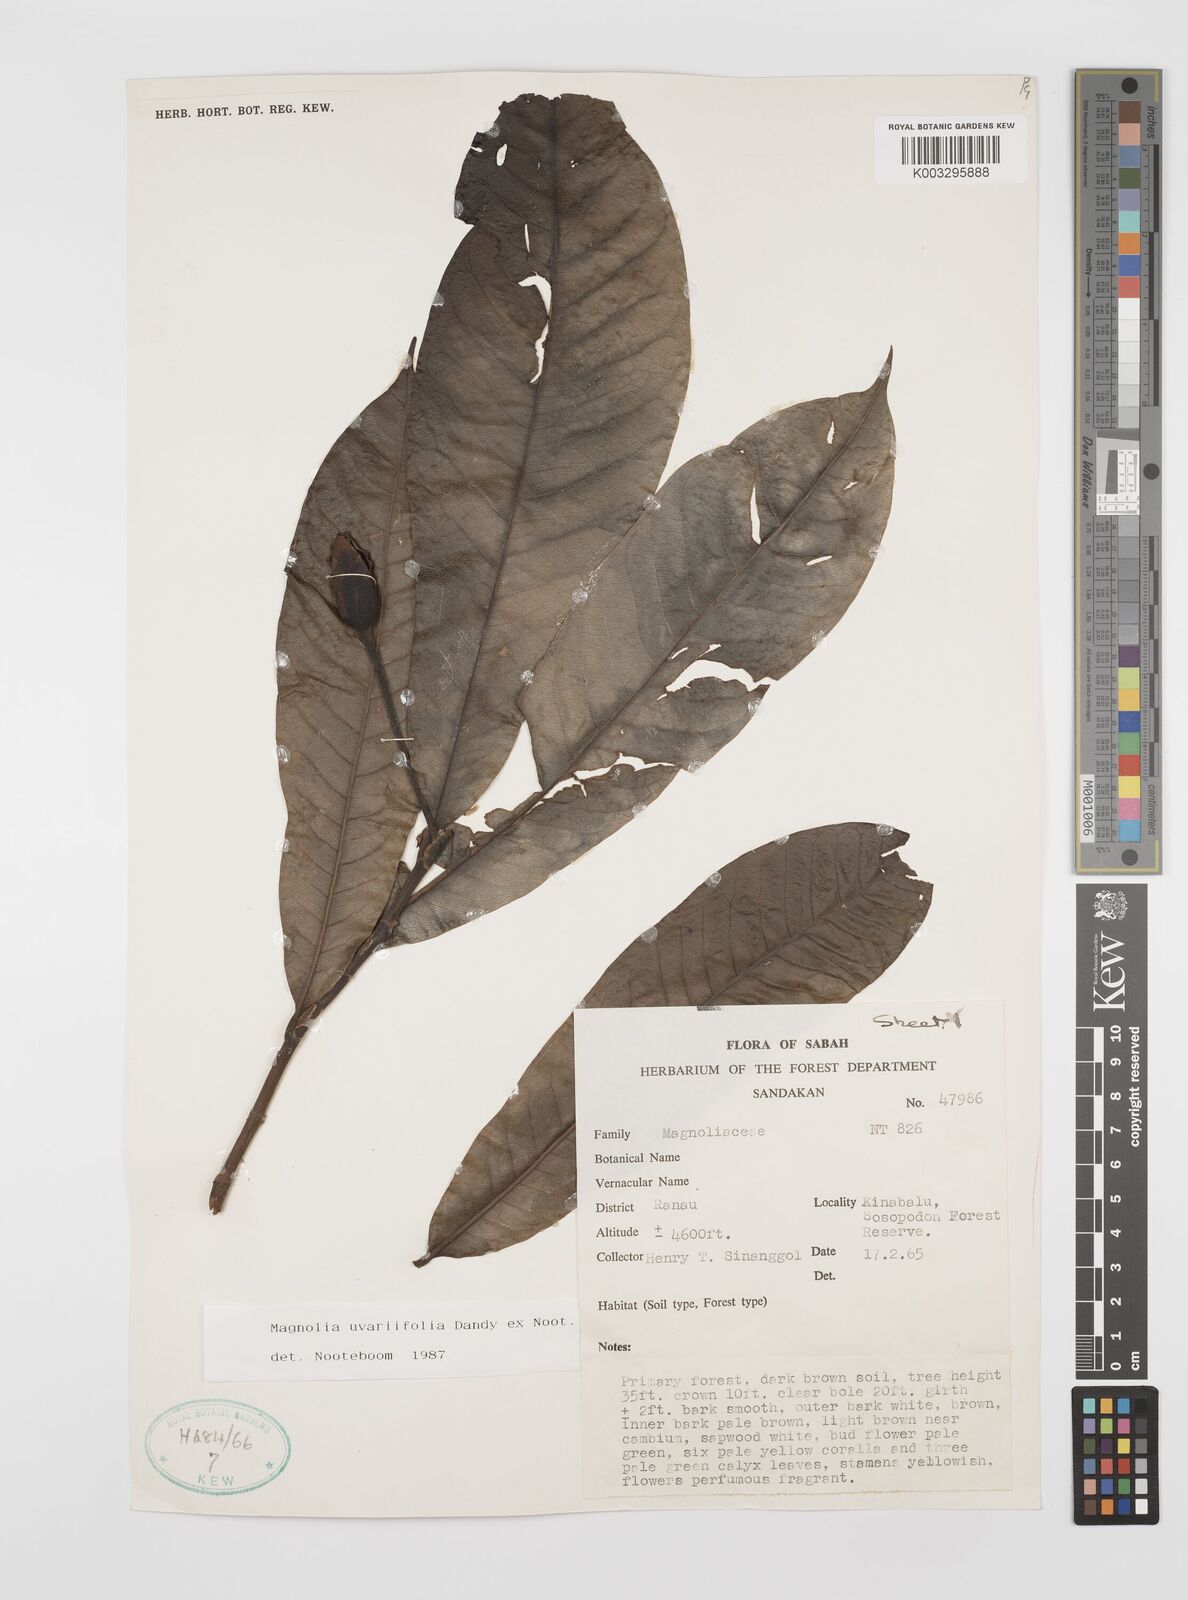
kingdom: Plantae
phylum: Tracheophyta
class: Magnoliopsida
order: Magnoliales
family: Magnoliaceae
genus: Magnolia
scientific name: Magnolia macklottii
